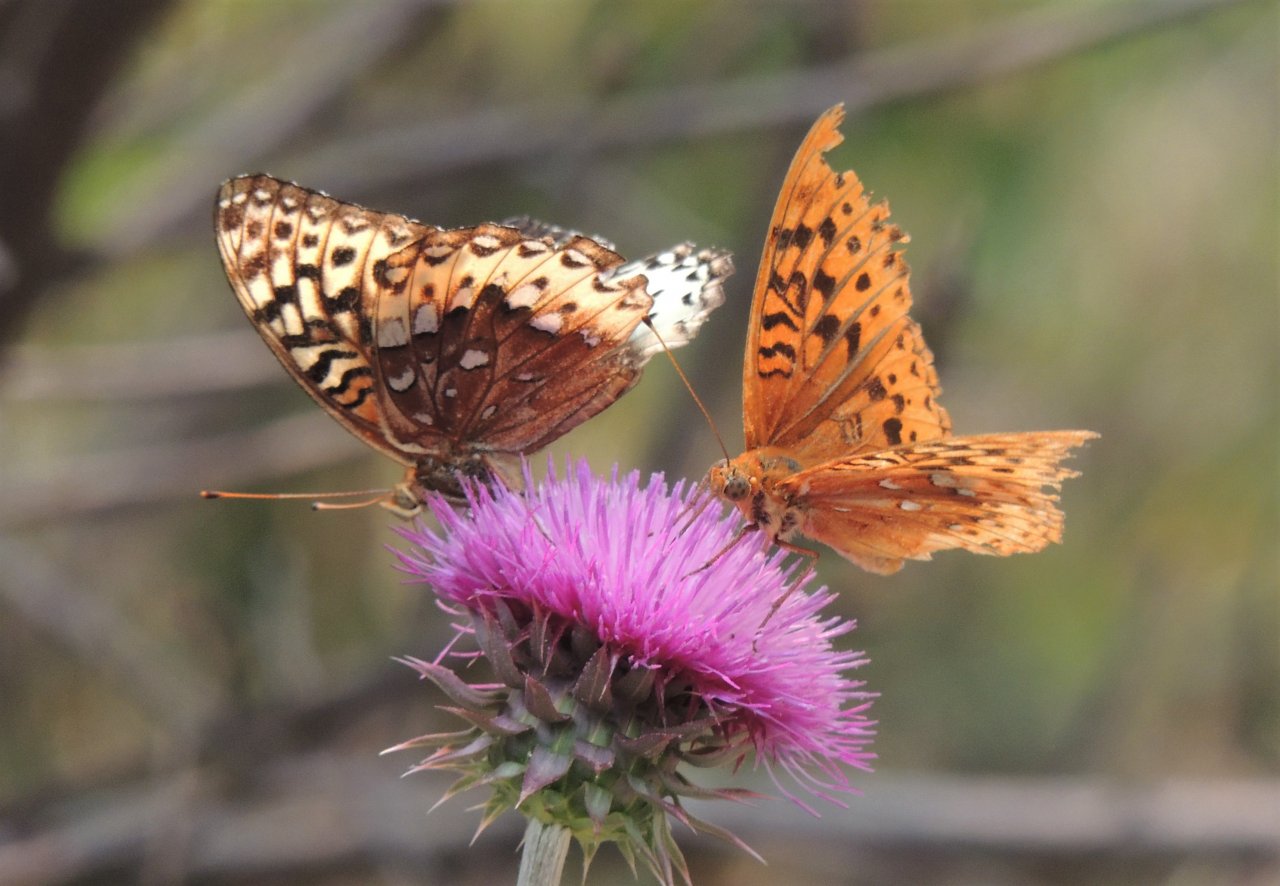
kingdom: Animalia
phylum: Arthropoda
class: Insecta
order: Lepidoptera
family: Nymphalidae
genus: Speyeria
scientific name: Speyeria cybele
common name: Great Spangled Fritillary
